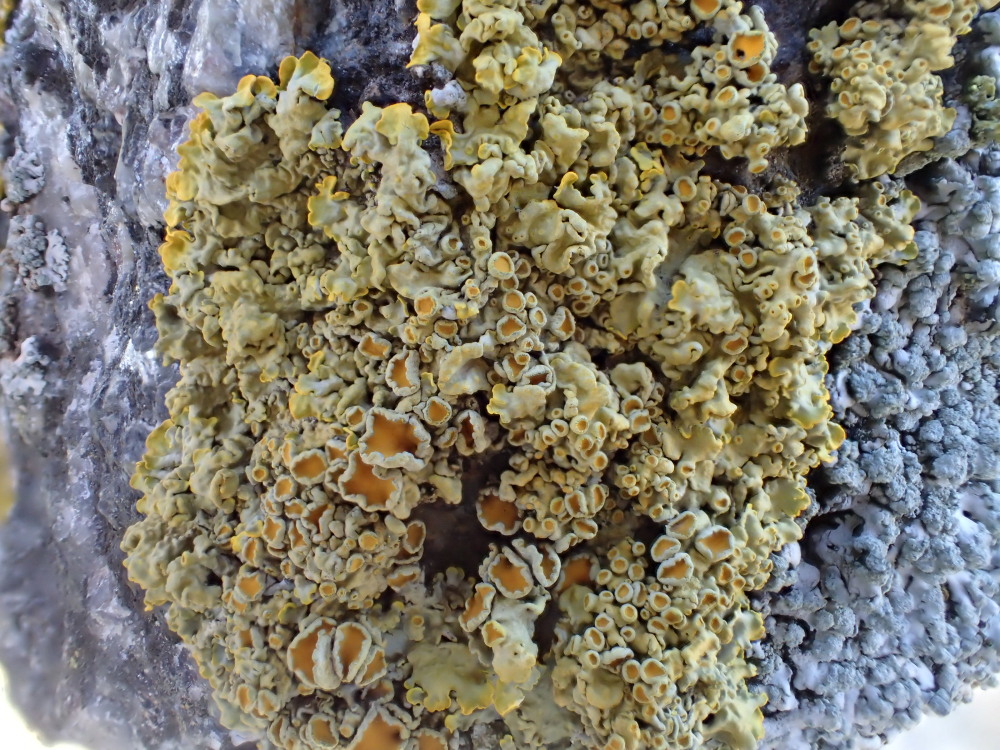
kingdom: Fungi
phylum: Ascomycota
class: Lecanoromycetes
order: Teloschistales
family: Teloschistaceae
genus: Xanthoria
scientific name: Xanthoria parietina
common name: almindelig væggelav
